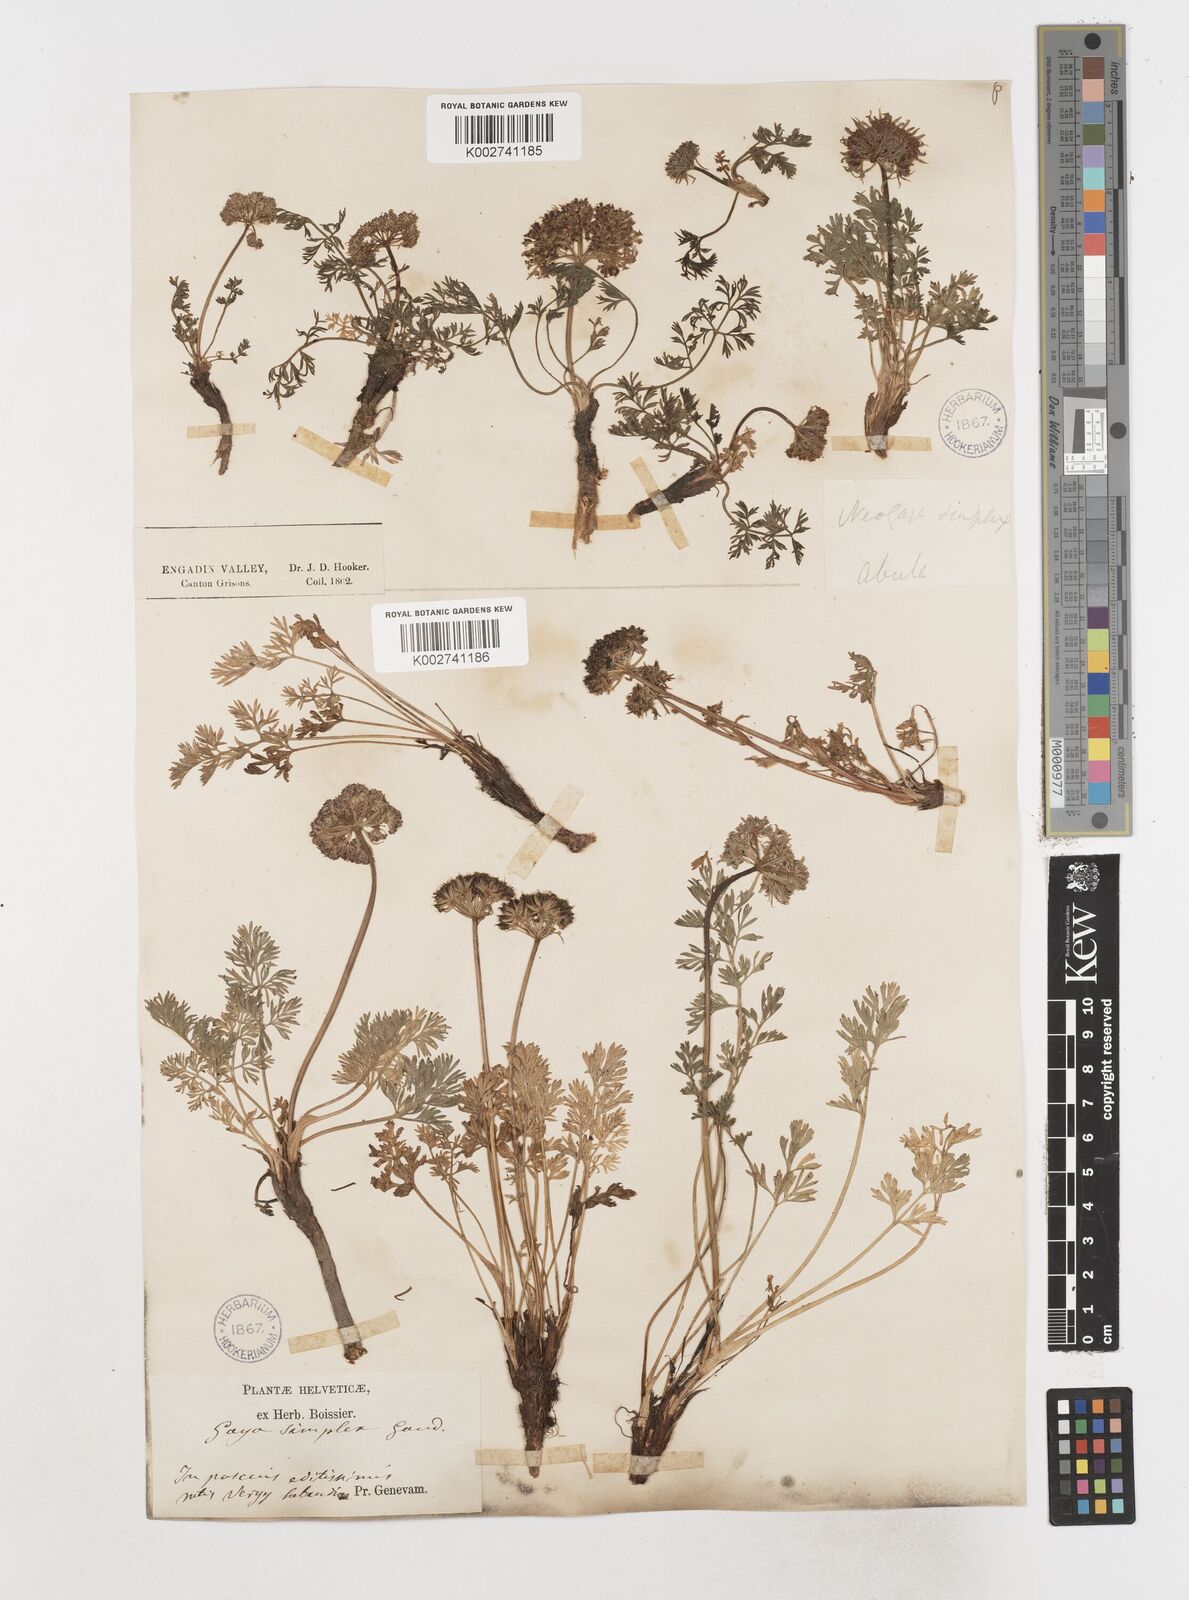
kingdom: Plantae
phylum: Tracheophyta
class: Magnoliopsida
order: Apiales
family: Apiaceae
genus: Pachypleurum
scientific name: Pachypleurum mutellinoides
